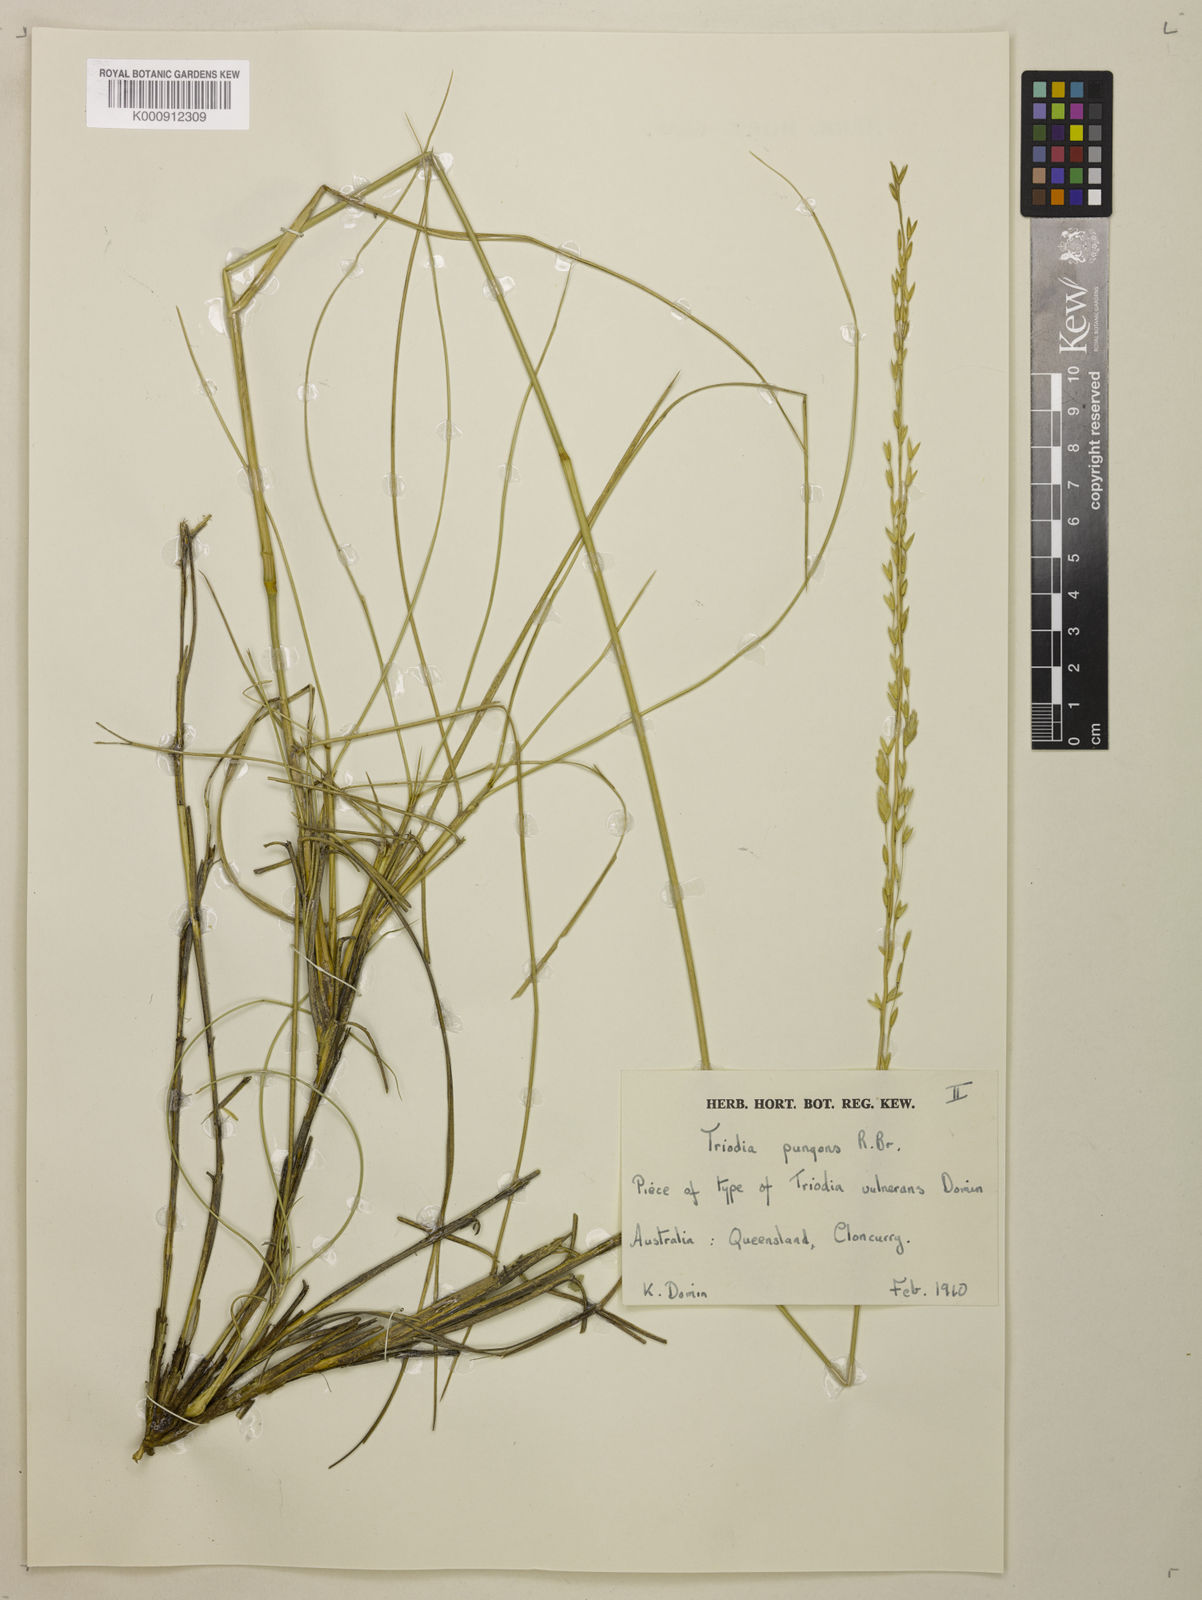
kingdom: Plantae
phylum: Tracheophyta
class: Liliopsida
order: Poales
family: Poaceae
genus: Triodia
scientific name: Triodia pungens
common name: Soft spinifex
